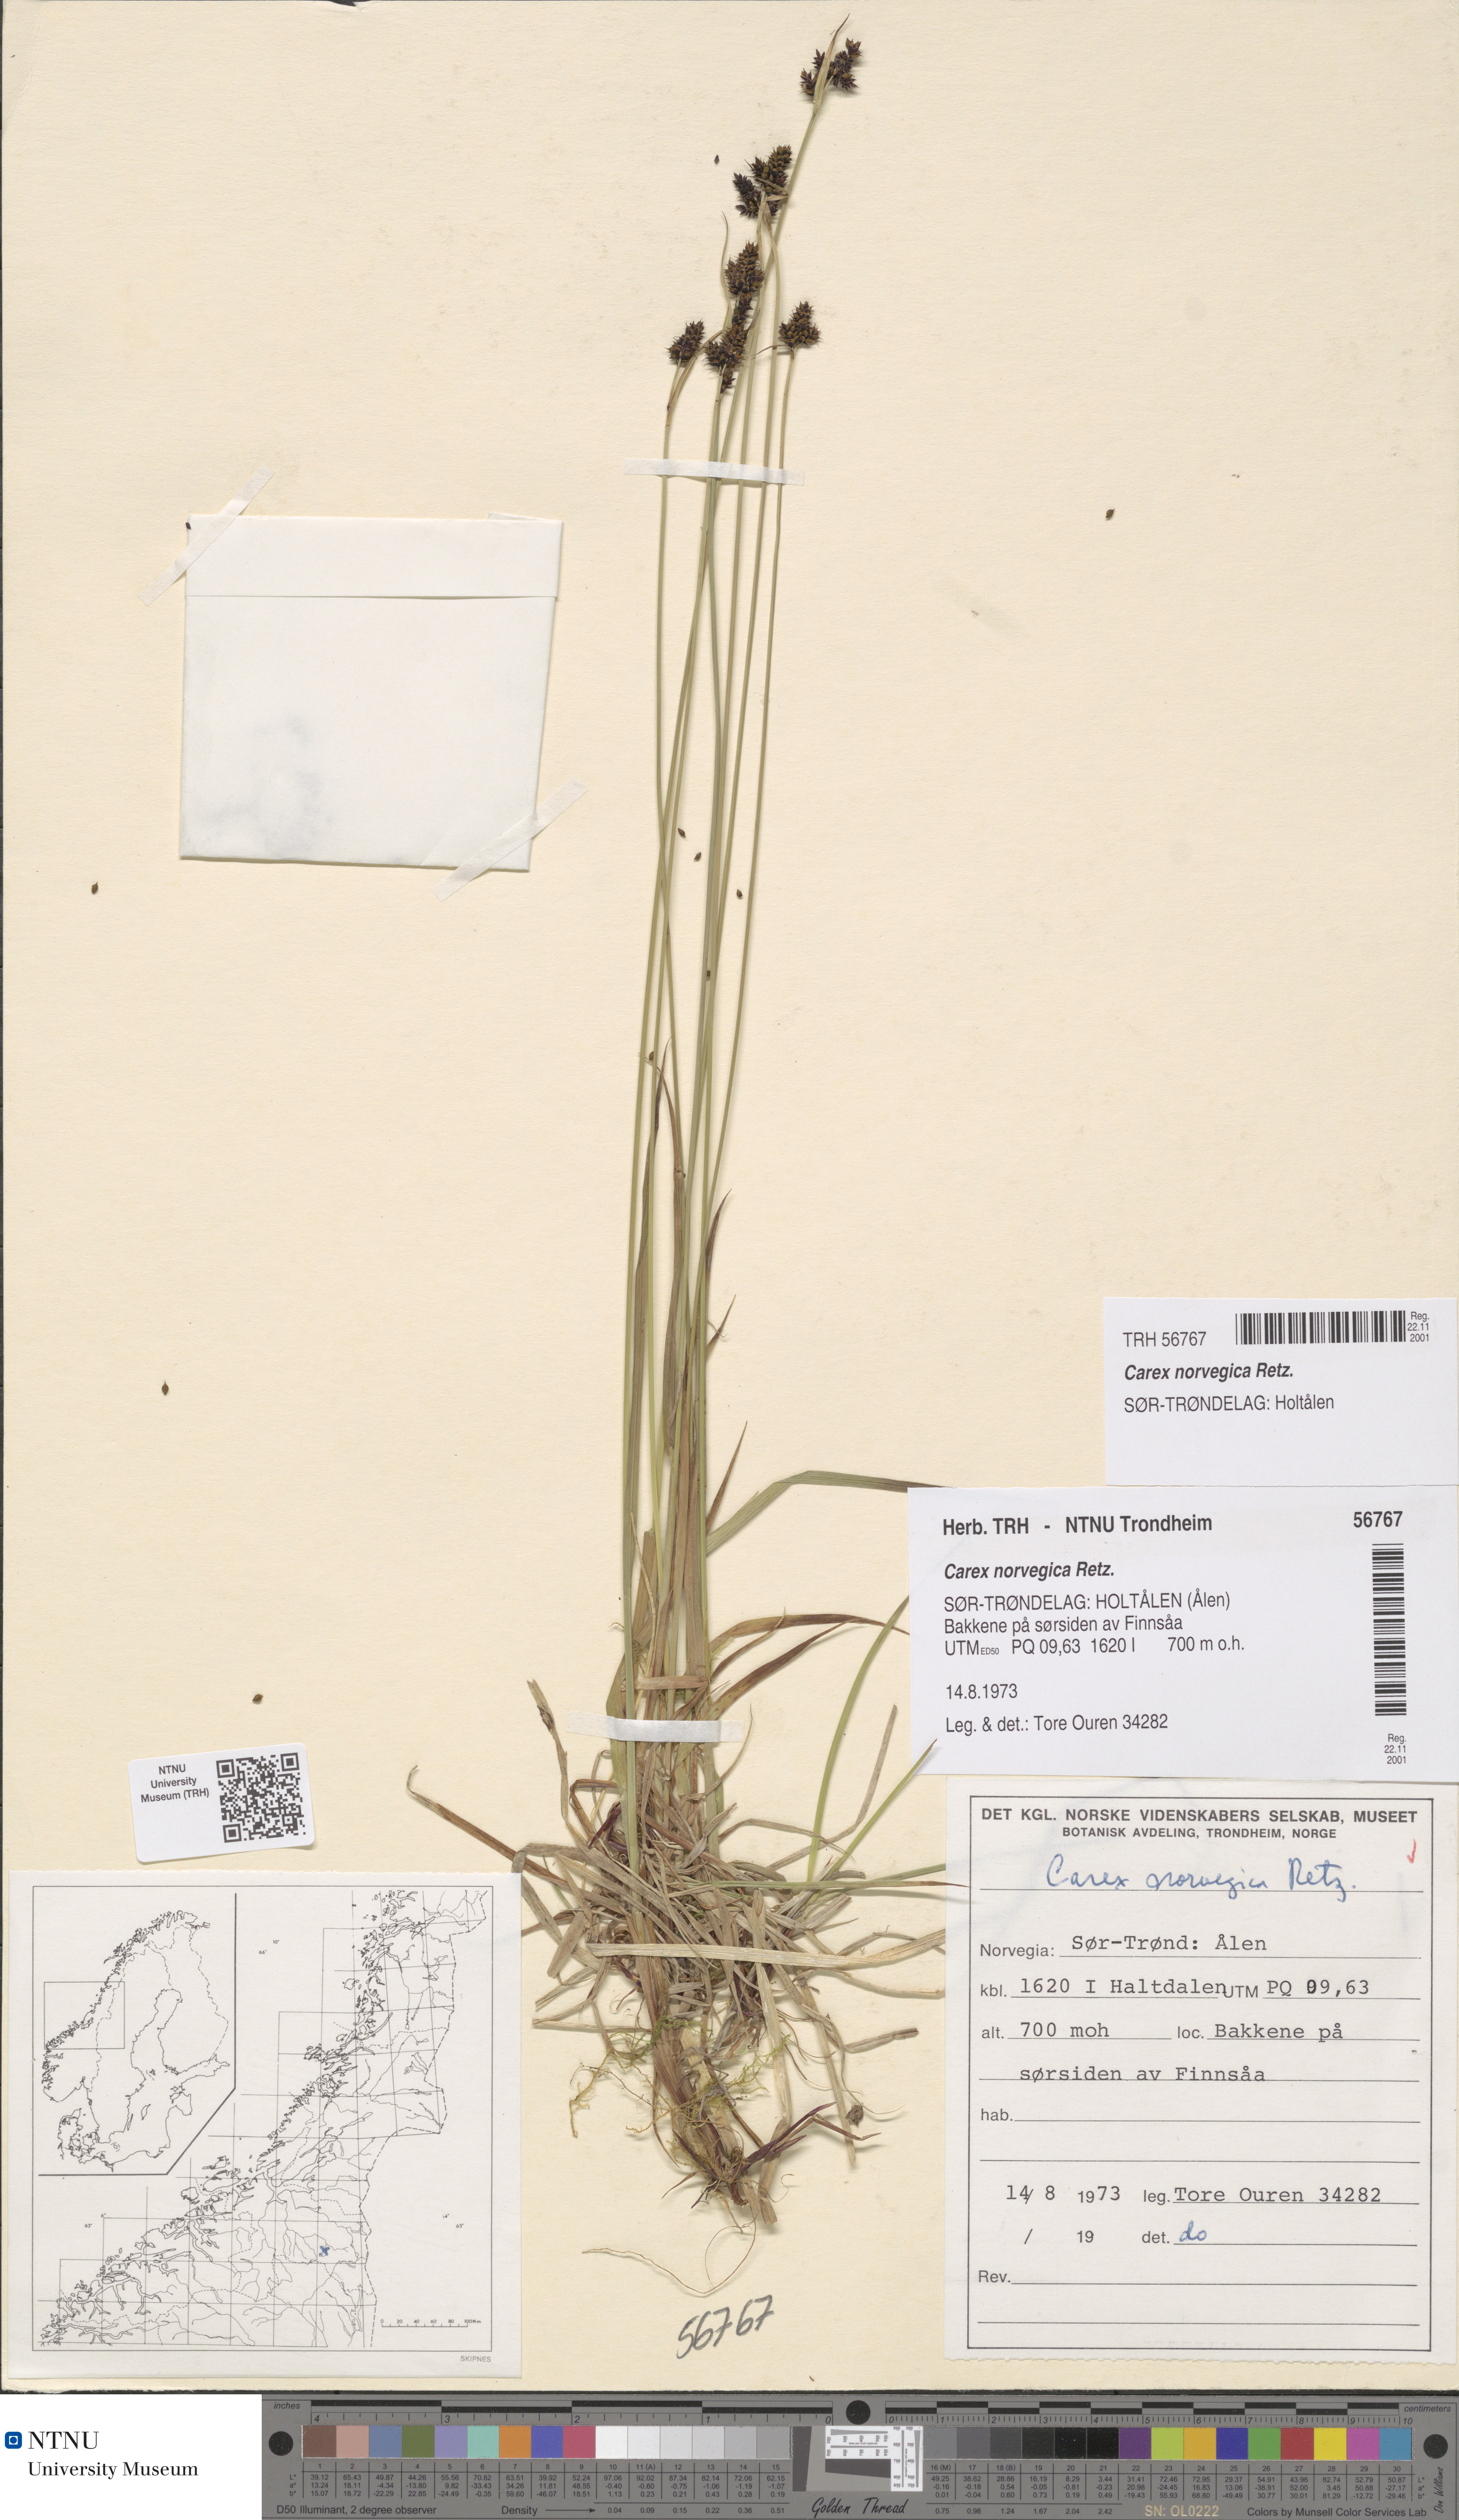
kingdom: Plantae
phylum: Tracheophyta
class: Liliopsida
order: Poales
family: Cyperaceae
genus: Carex
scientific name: Carex norvegica
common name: Close-headed alpine-sedge
